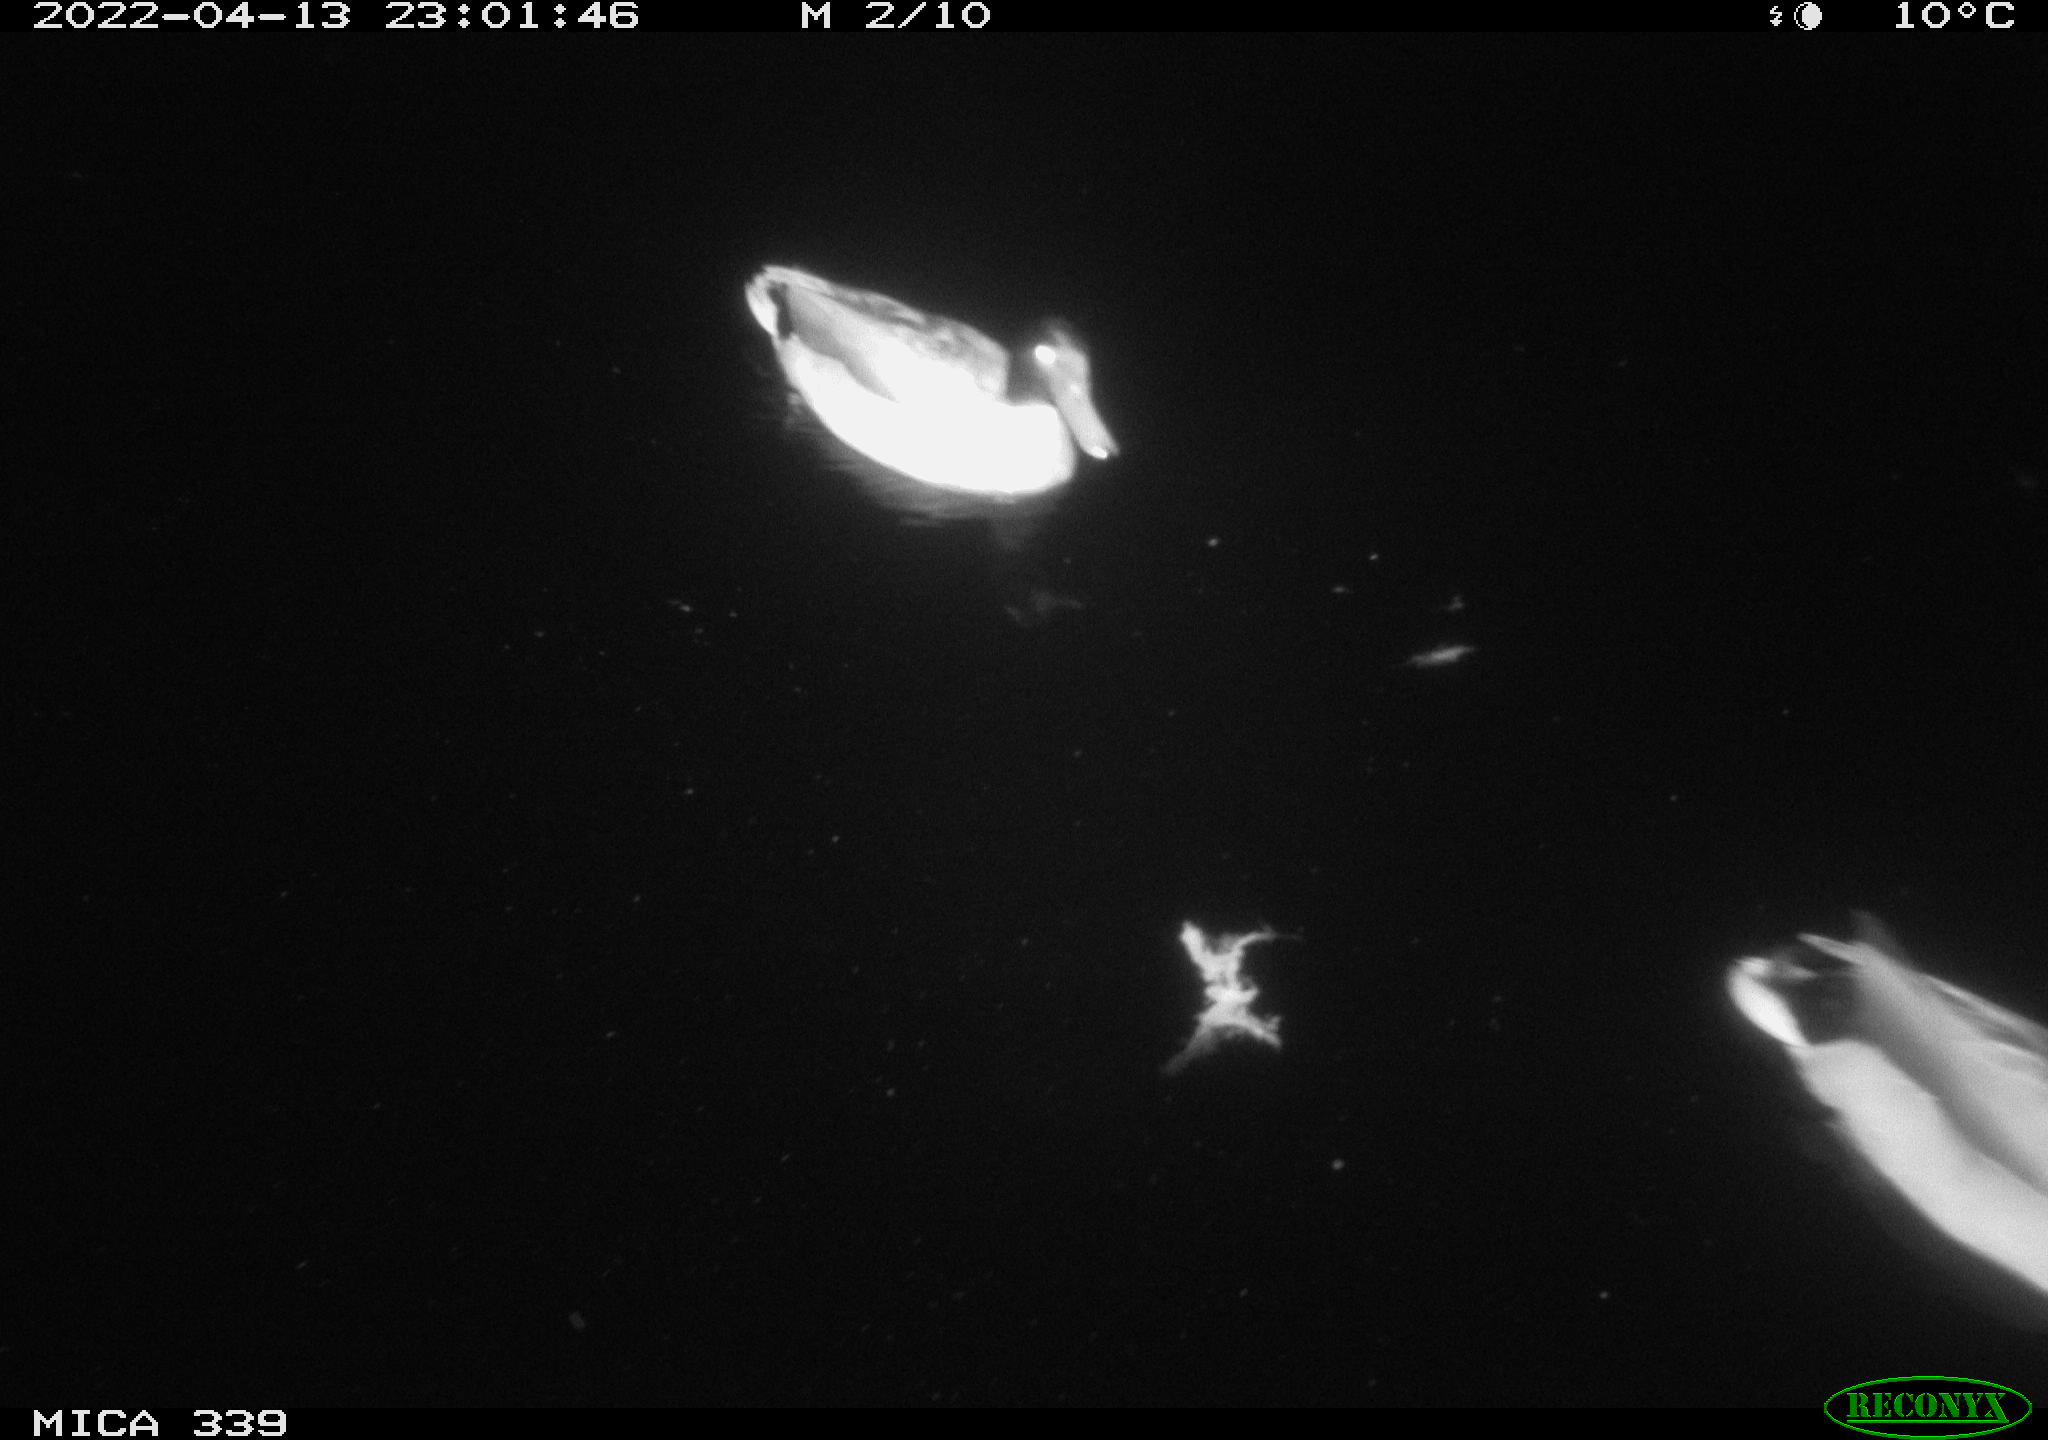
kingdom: Animalia
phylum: Chordata
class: Aves
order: Anseriformes
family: Anatidae
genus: Anas
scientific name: Anas platyrhynchos
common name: Mallard
